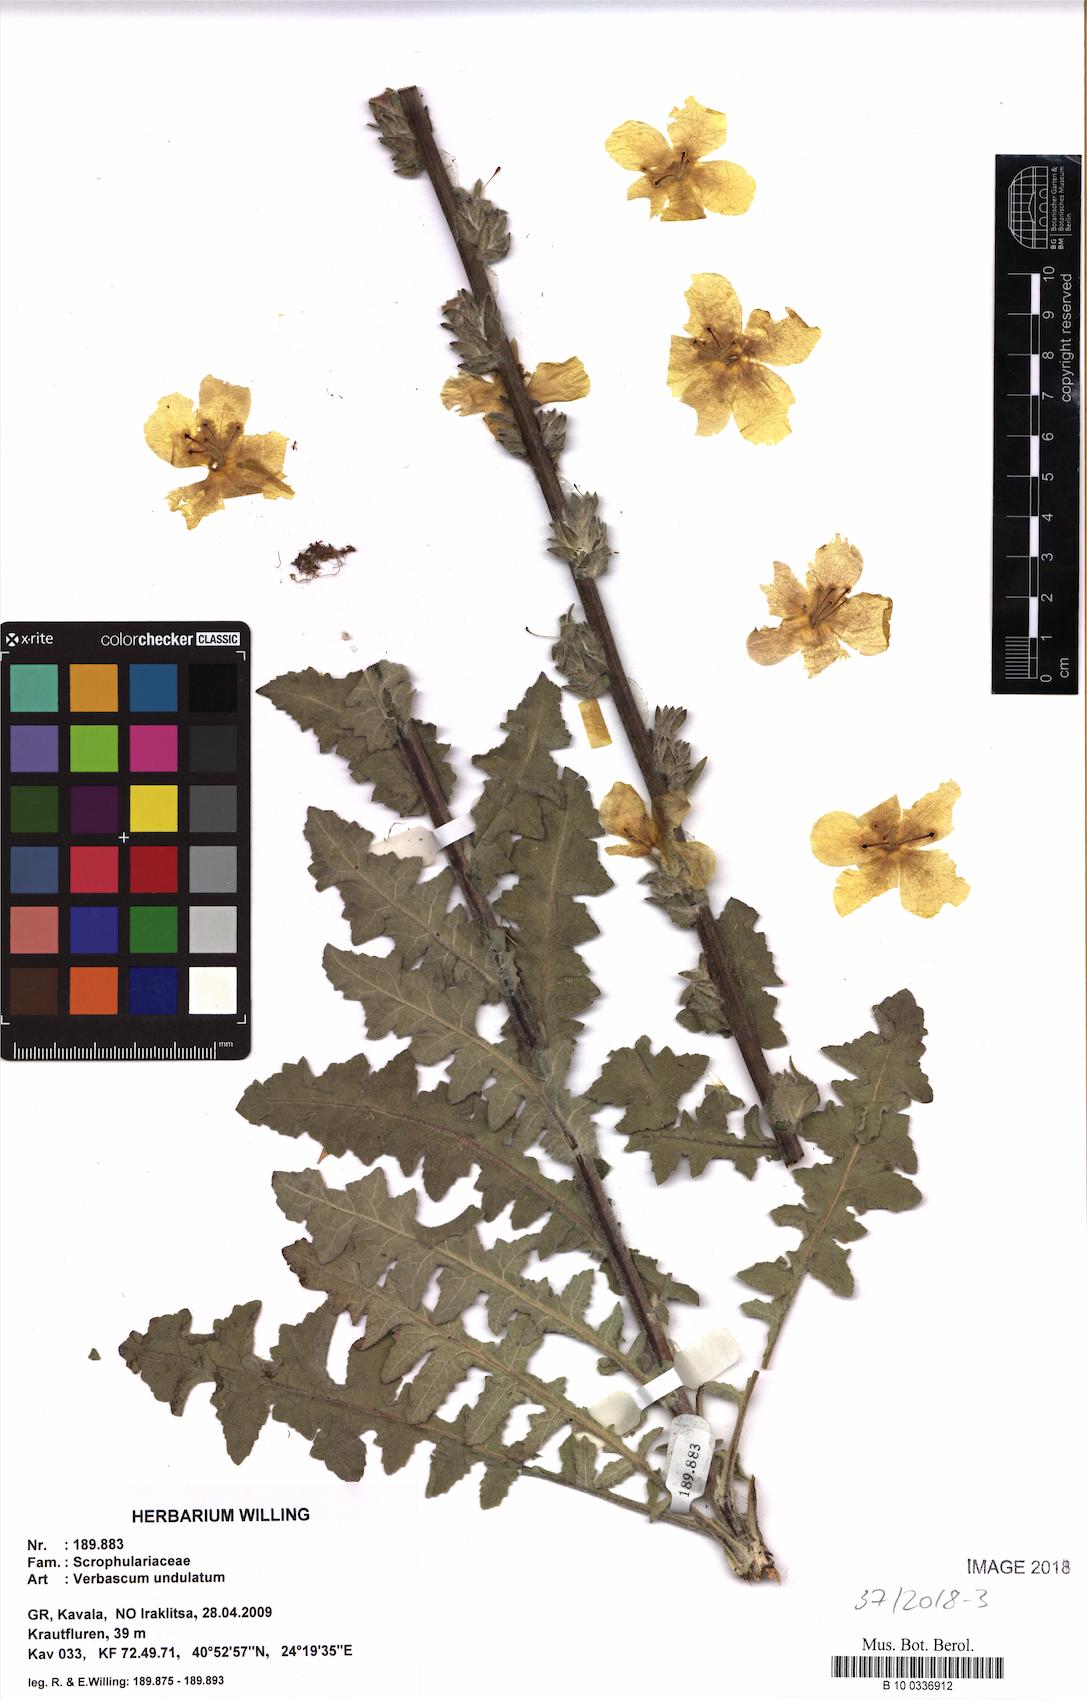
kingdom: Plantae
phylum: Tracheophyta
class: Magnoliopsida
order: Lamiales
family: Scrophulariaceae
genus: Verbascum
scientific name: Verbascum halacsyanum
